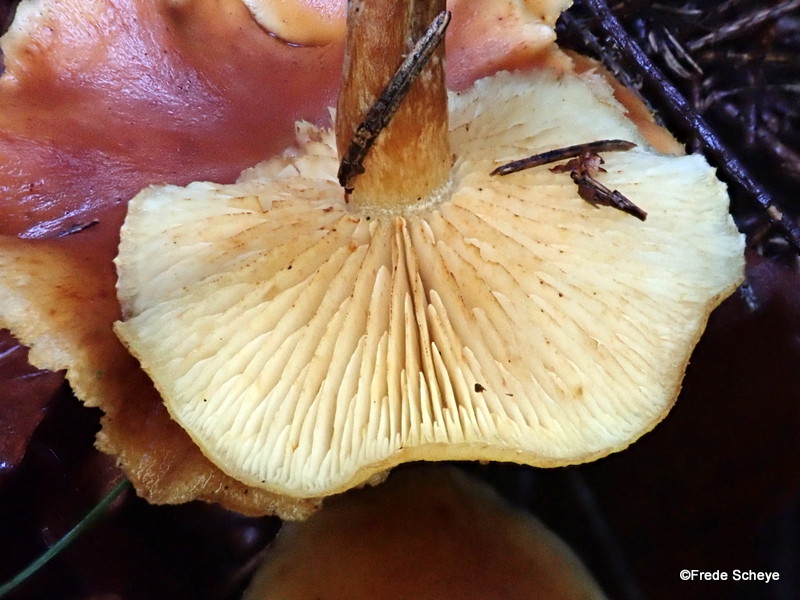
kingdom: Fungi
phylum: Basidiomycota
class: Agaricomycetes
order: Agaricales
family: Hymenogastraceae
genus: Gymnopilus
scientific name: Gymnopilus penetrans
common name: plettet flammehat
